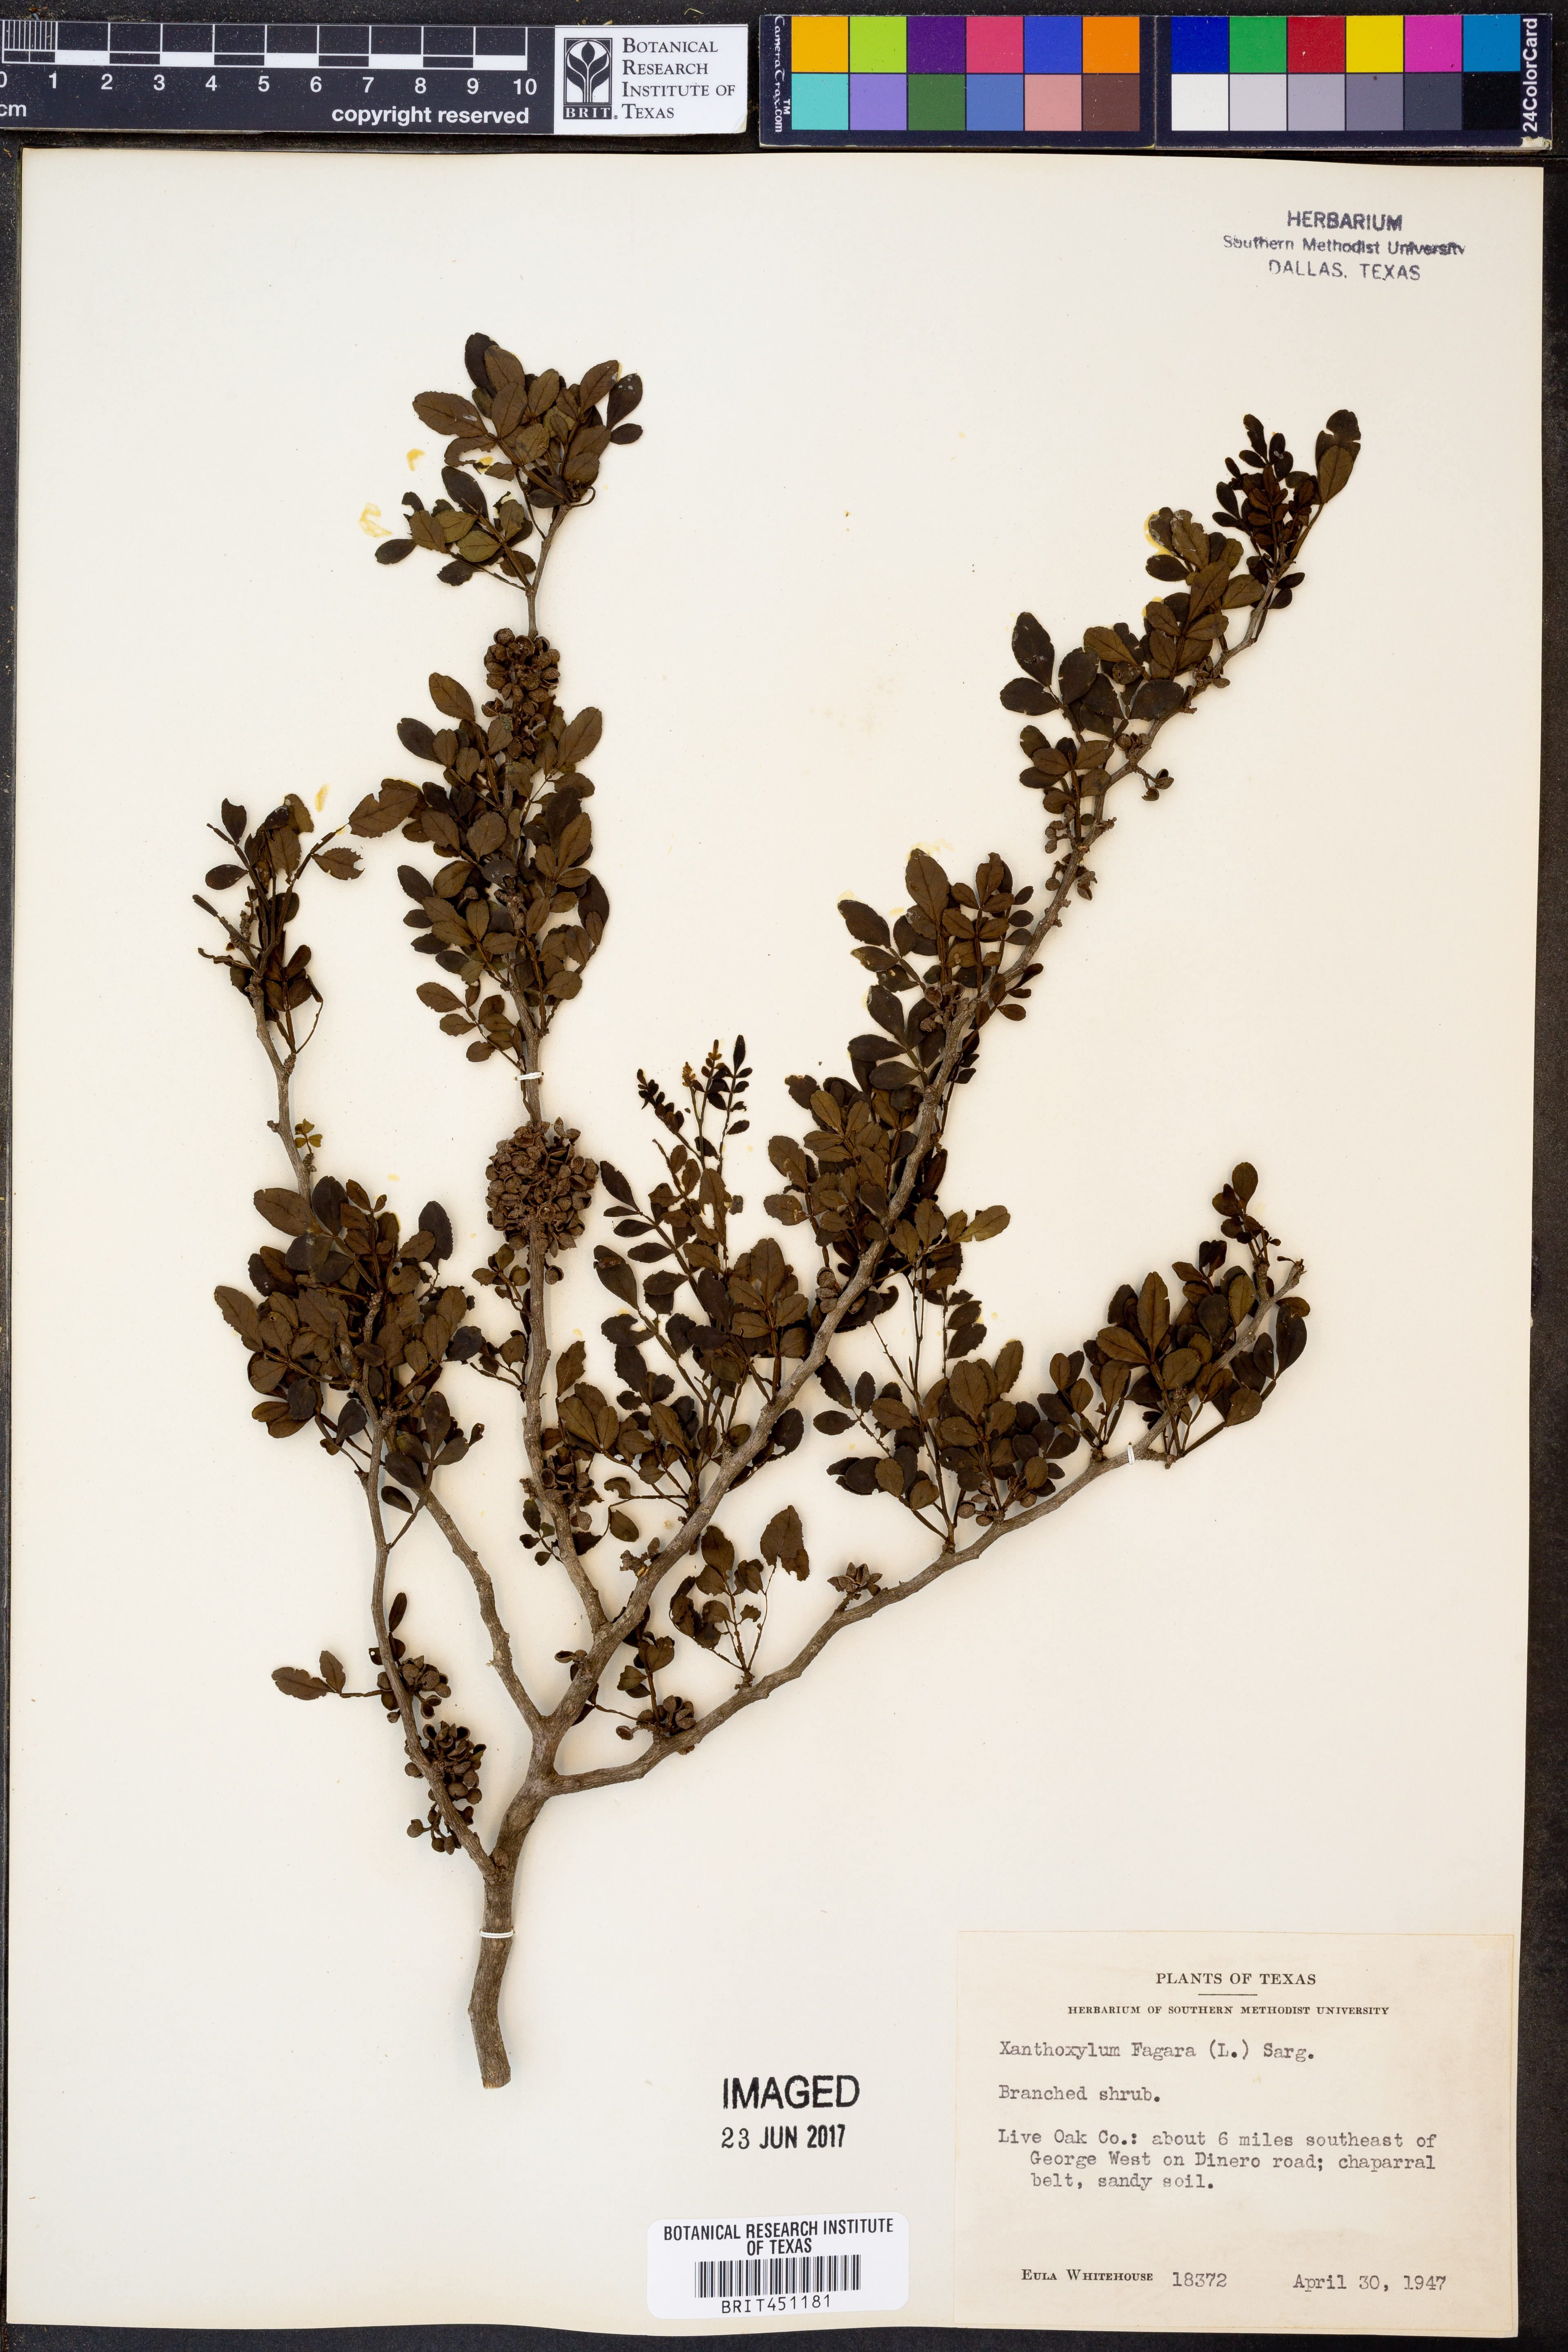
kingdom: Plantae
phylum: Tracheophyta
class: Magnoliopsida
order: Sapindales
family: Rutaceae
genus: Zanthoxylum
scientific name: Zanthoxylum fagara
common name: Lime prickly-ash
